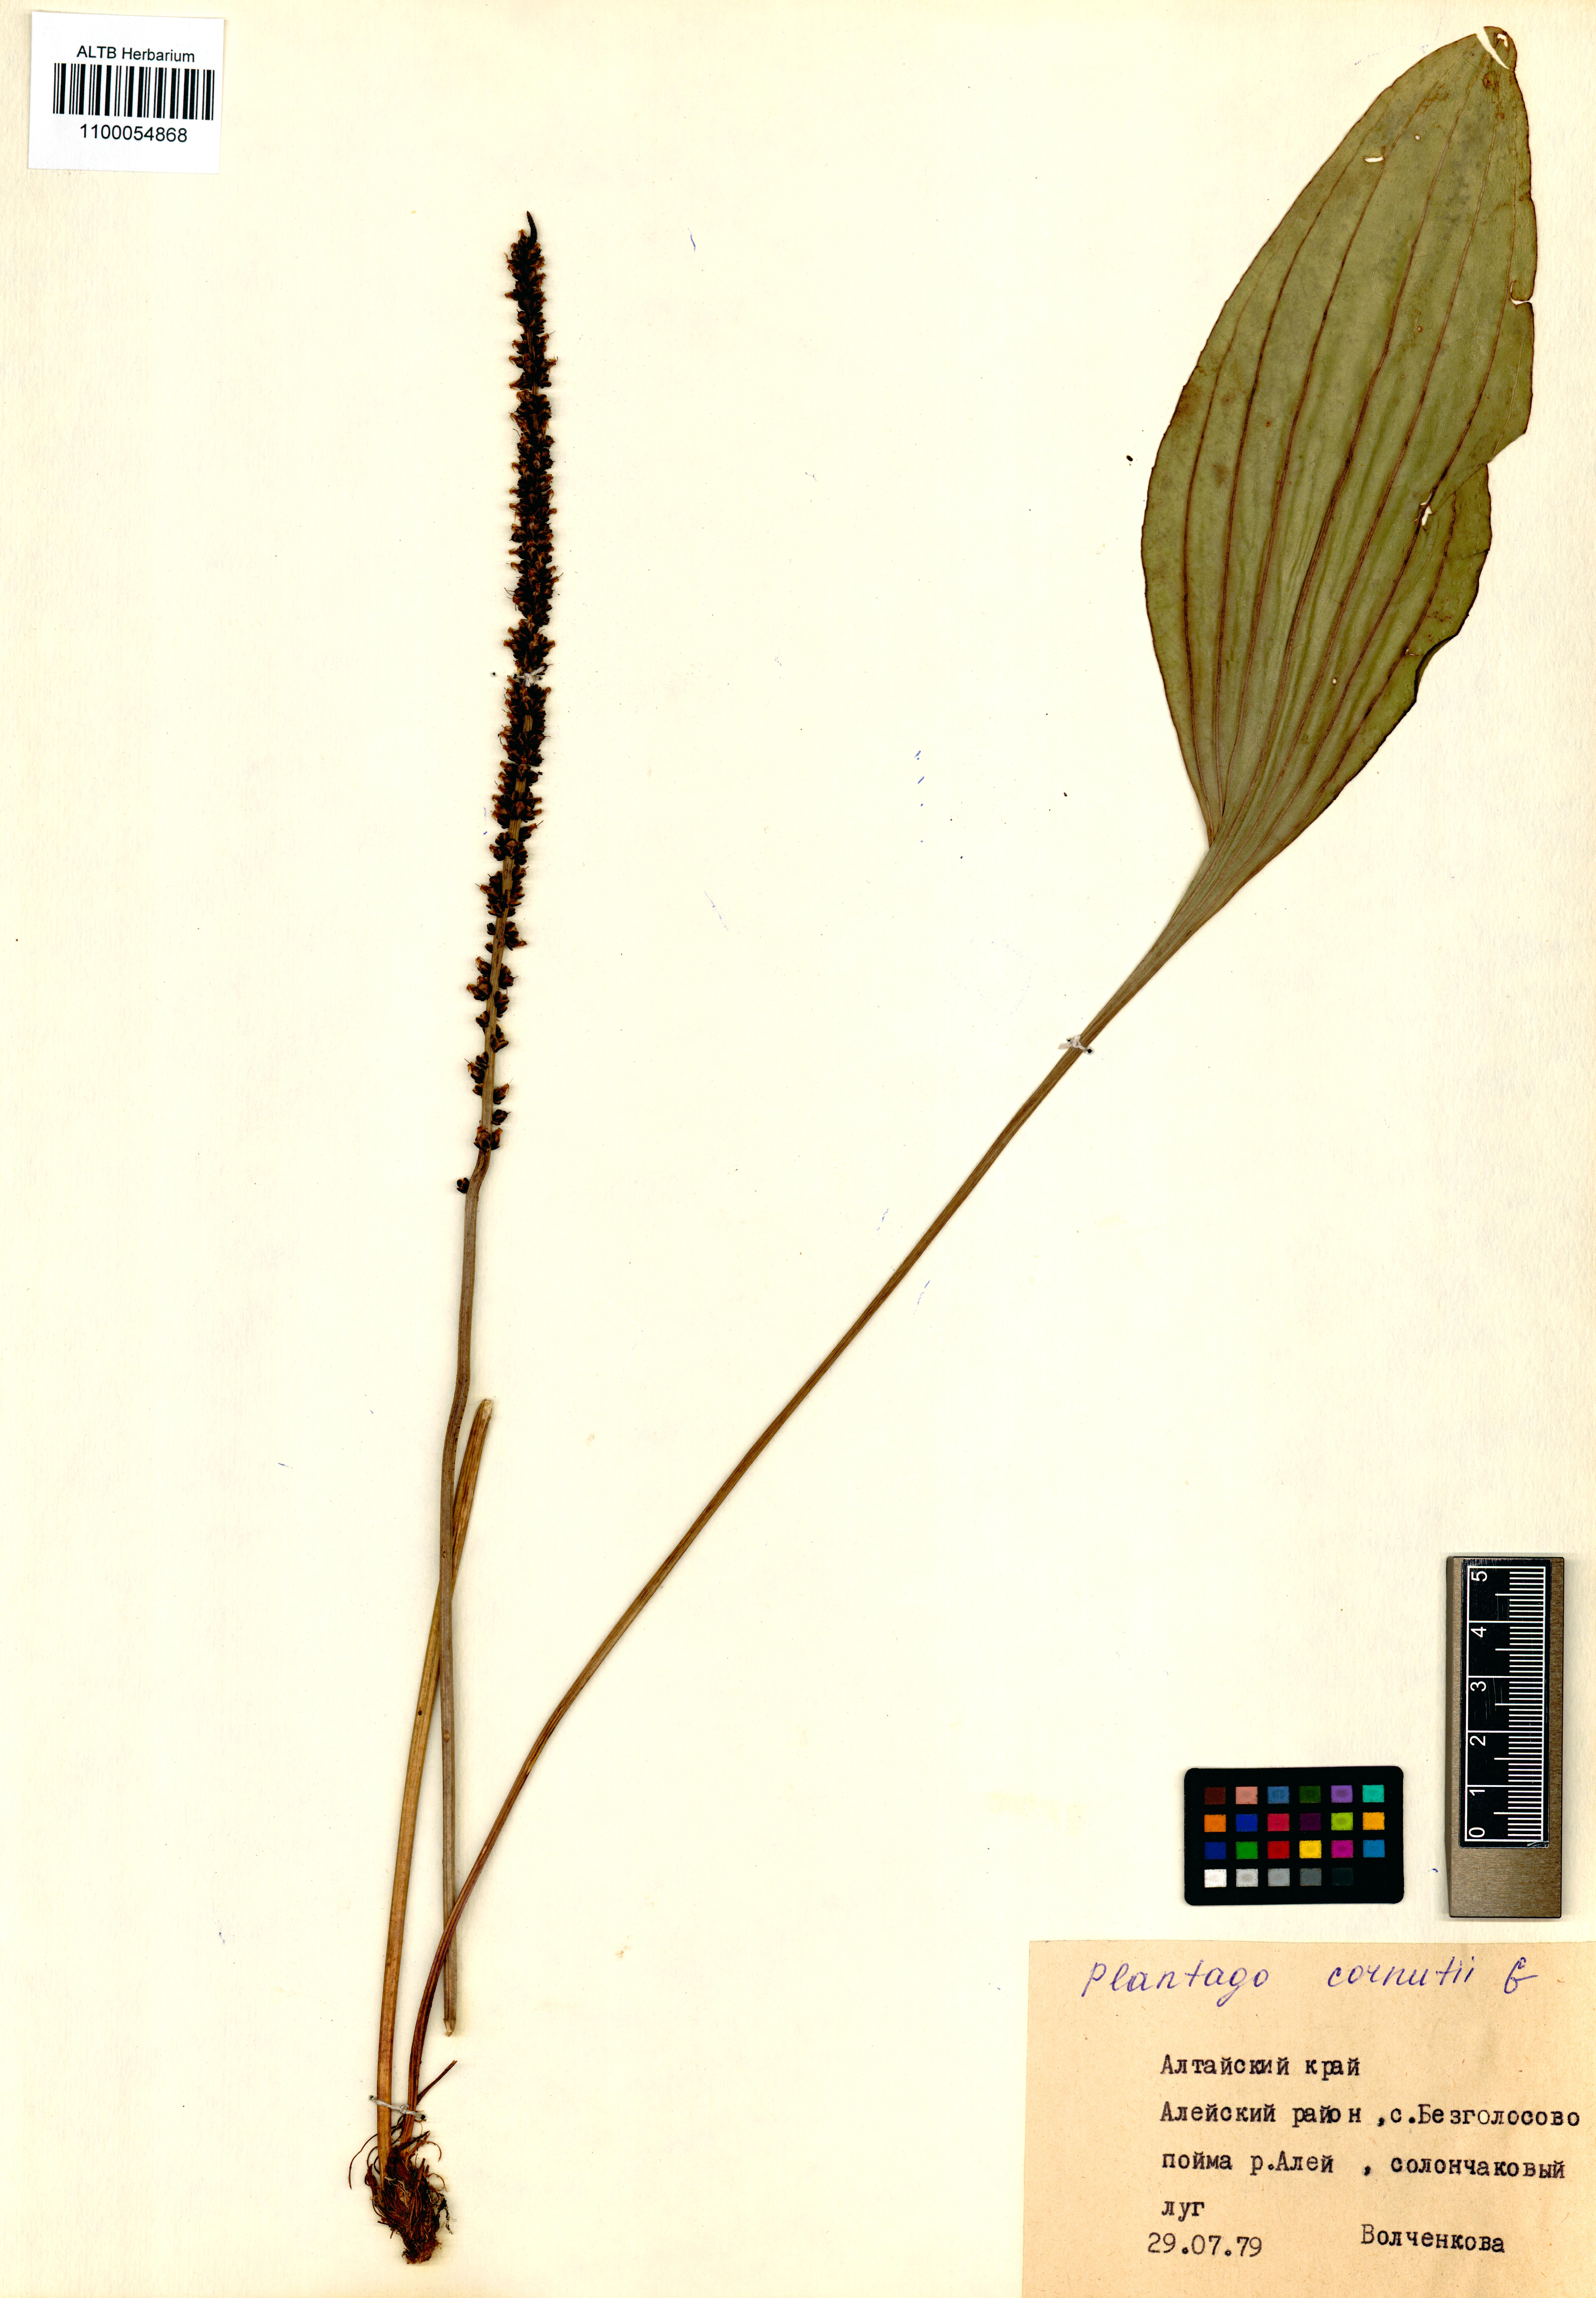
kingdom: Plantae
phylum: Tracheophyta
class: Magnoliopsida
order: Lamiales
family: Plantaginaceae
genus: Plantago
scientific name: Plantago cornuti
